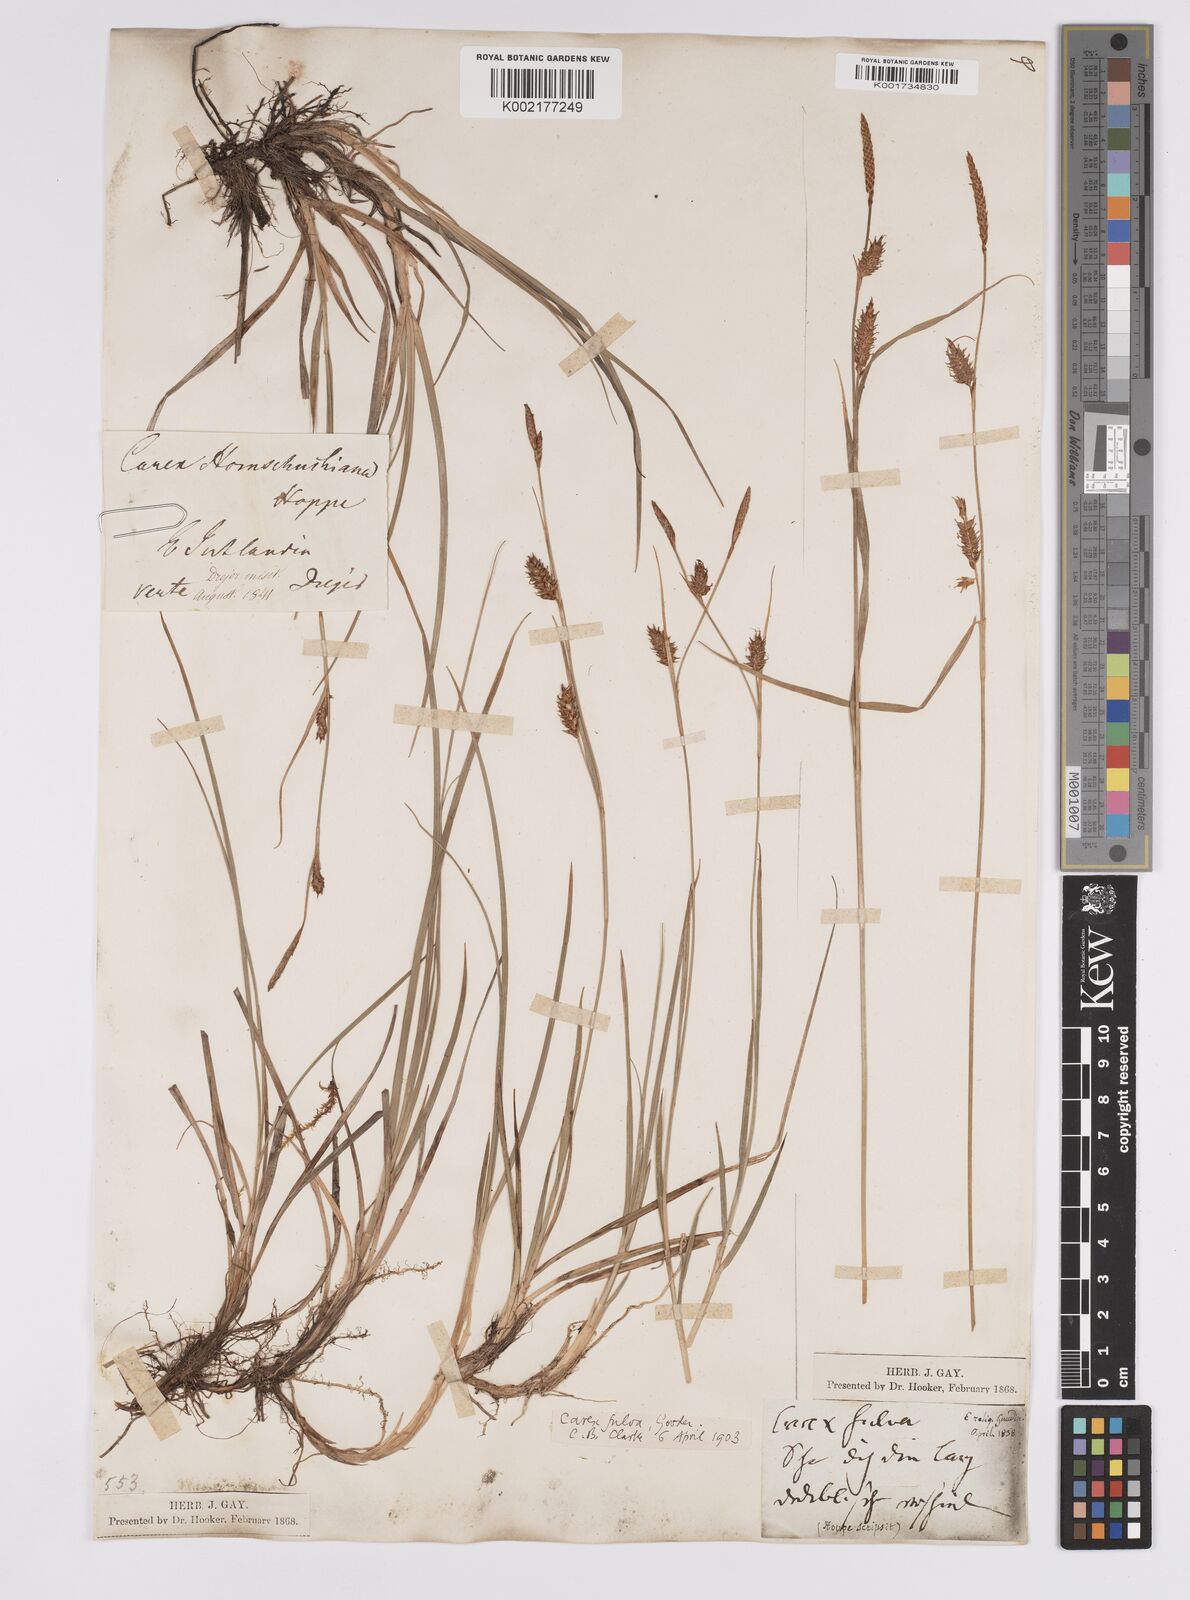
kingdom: Plantae
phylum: Tracheophyta
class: Liliopsida
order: Poales
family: Cyperaceae
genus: Carex
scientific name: Carex hostiana
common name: Tawny sedge
